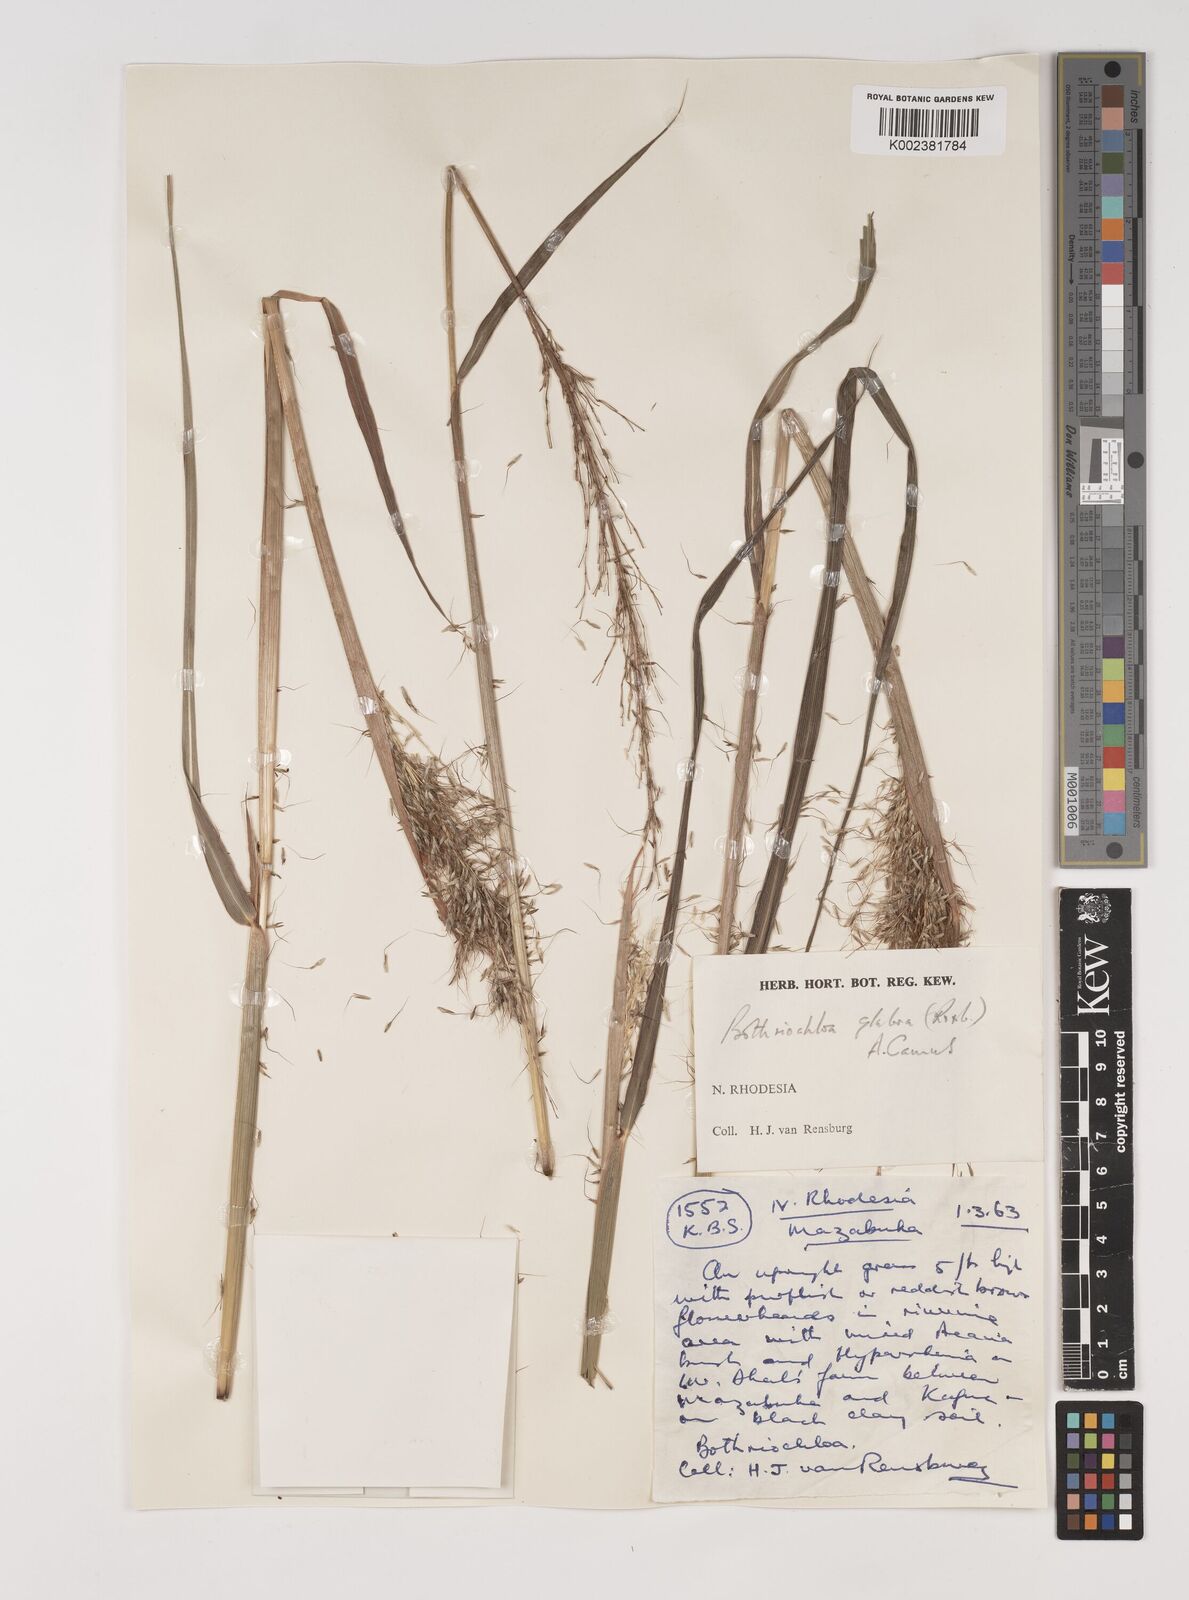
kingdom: Plantae
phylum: Tracheophyta
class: Liliopsida
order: Poales
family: Poaceae
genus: Bothriochloa
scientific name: Bothriochloa bladhii
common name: Caucasian bluestem
